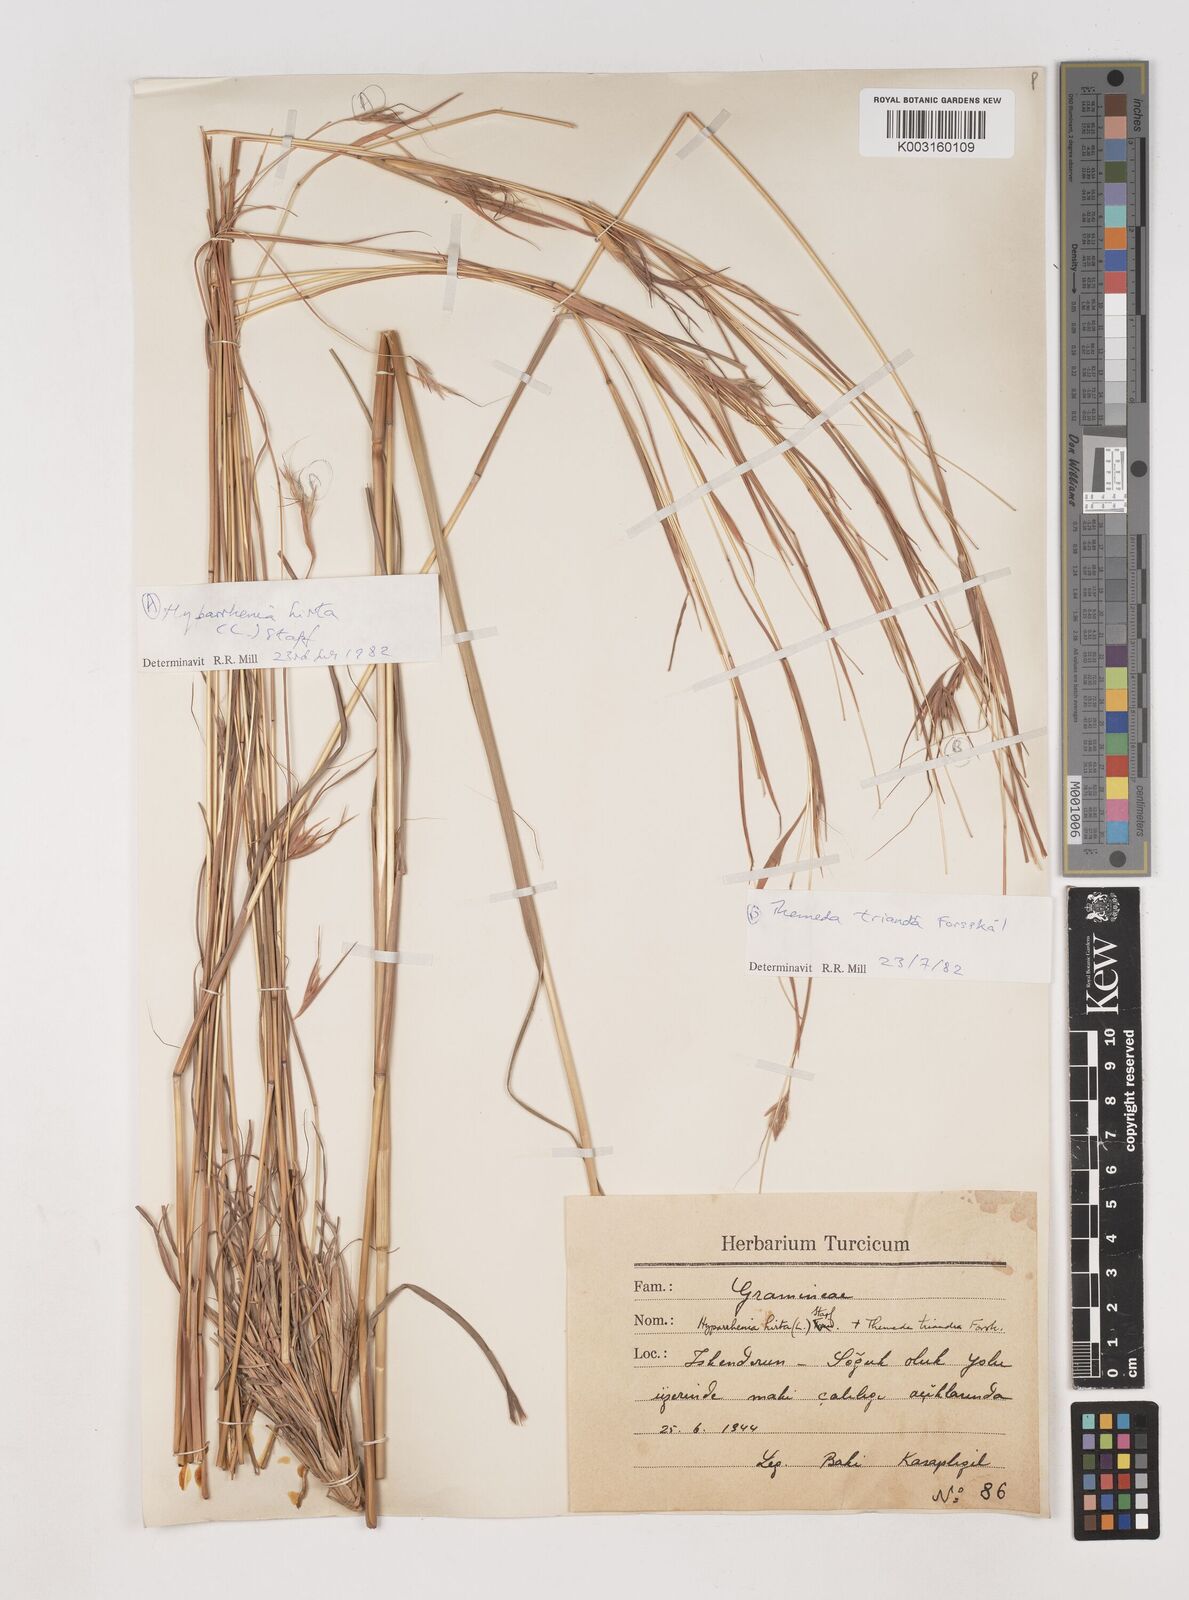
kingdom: Plantae
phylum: Tracheophyta
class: Liliopsida
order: Poales
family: Poaceae
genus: Hyparrhenia
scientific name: Hyparrhenia hirta
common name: Thatching grass
